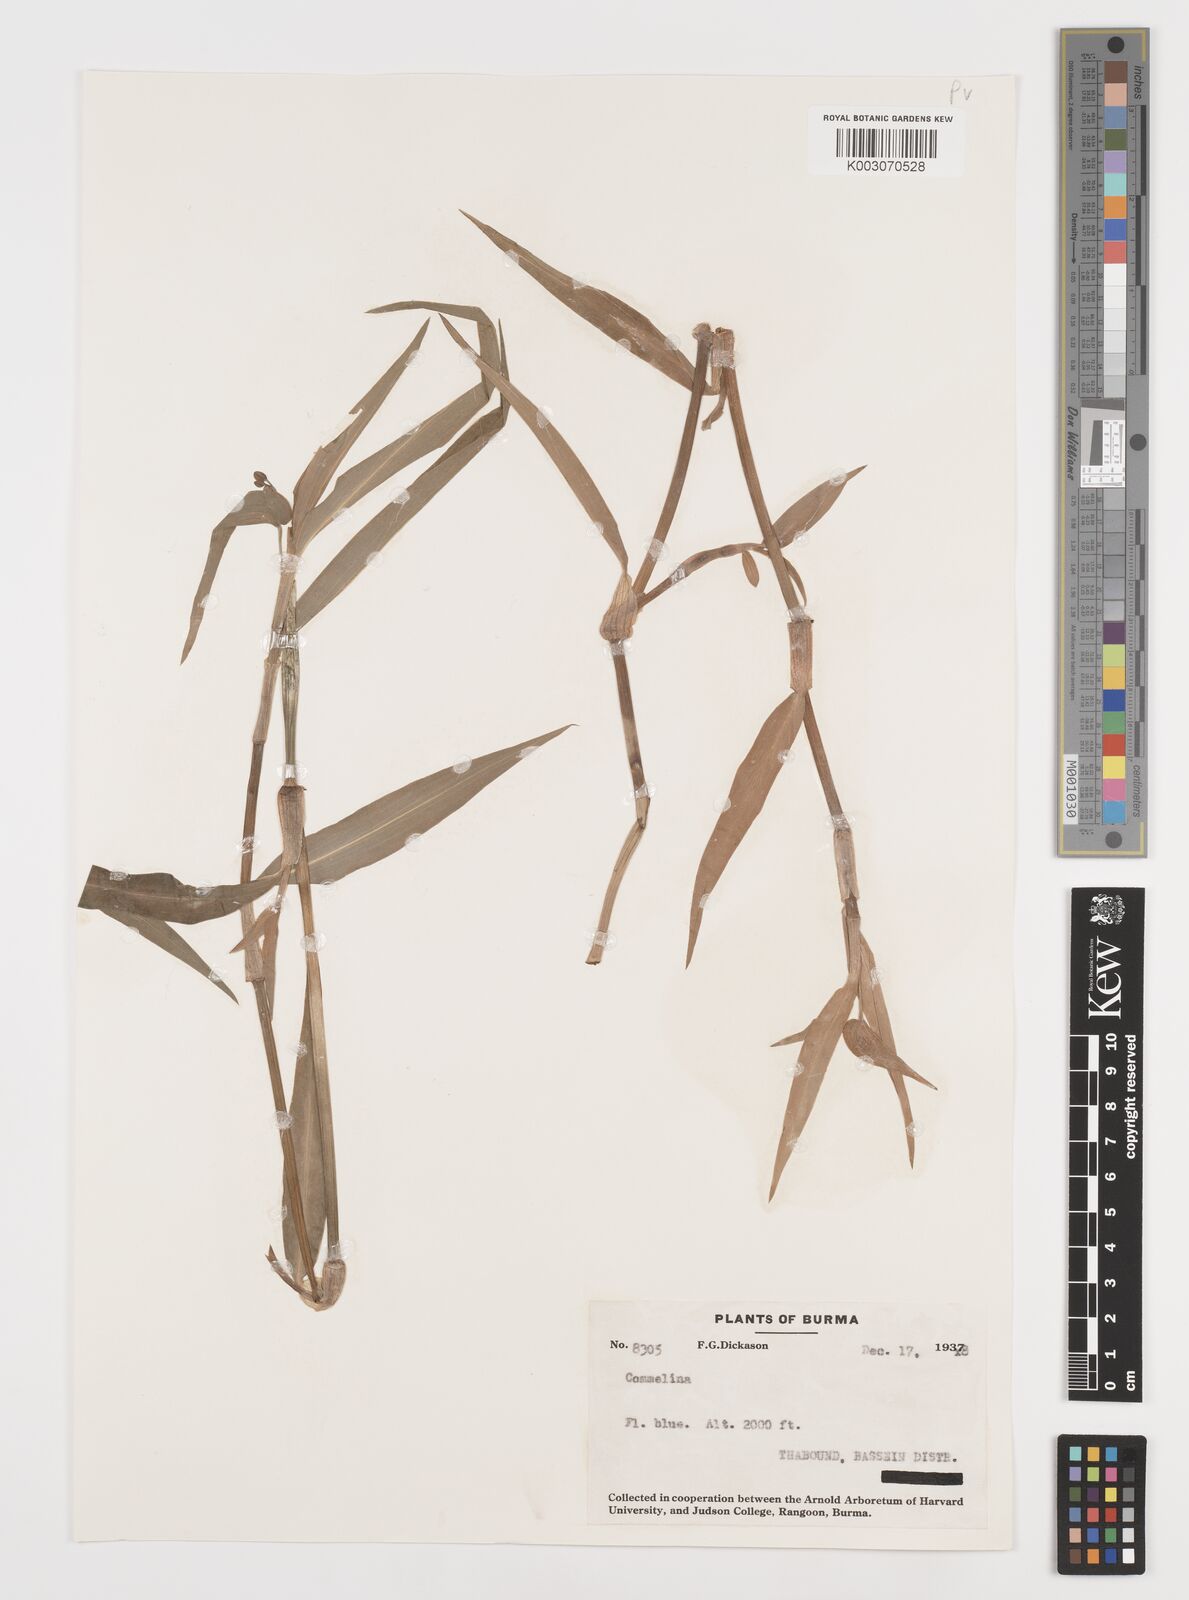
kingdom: Plantae
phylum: Tracheophyta
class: Liliopsida
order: Commelinales
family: Commelinaceae
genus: Commelina
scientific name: Commelina
